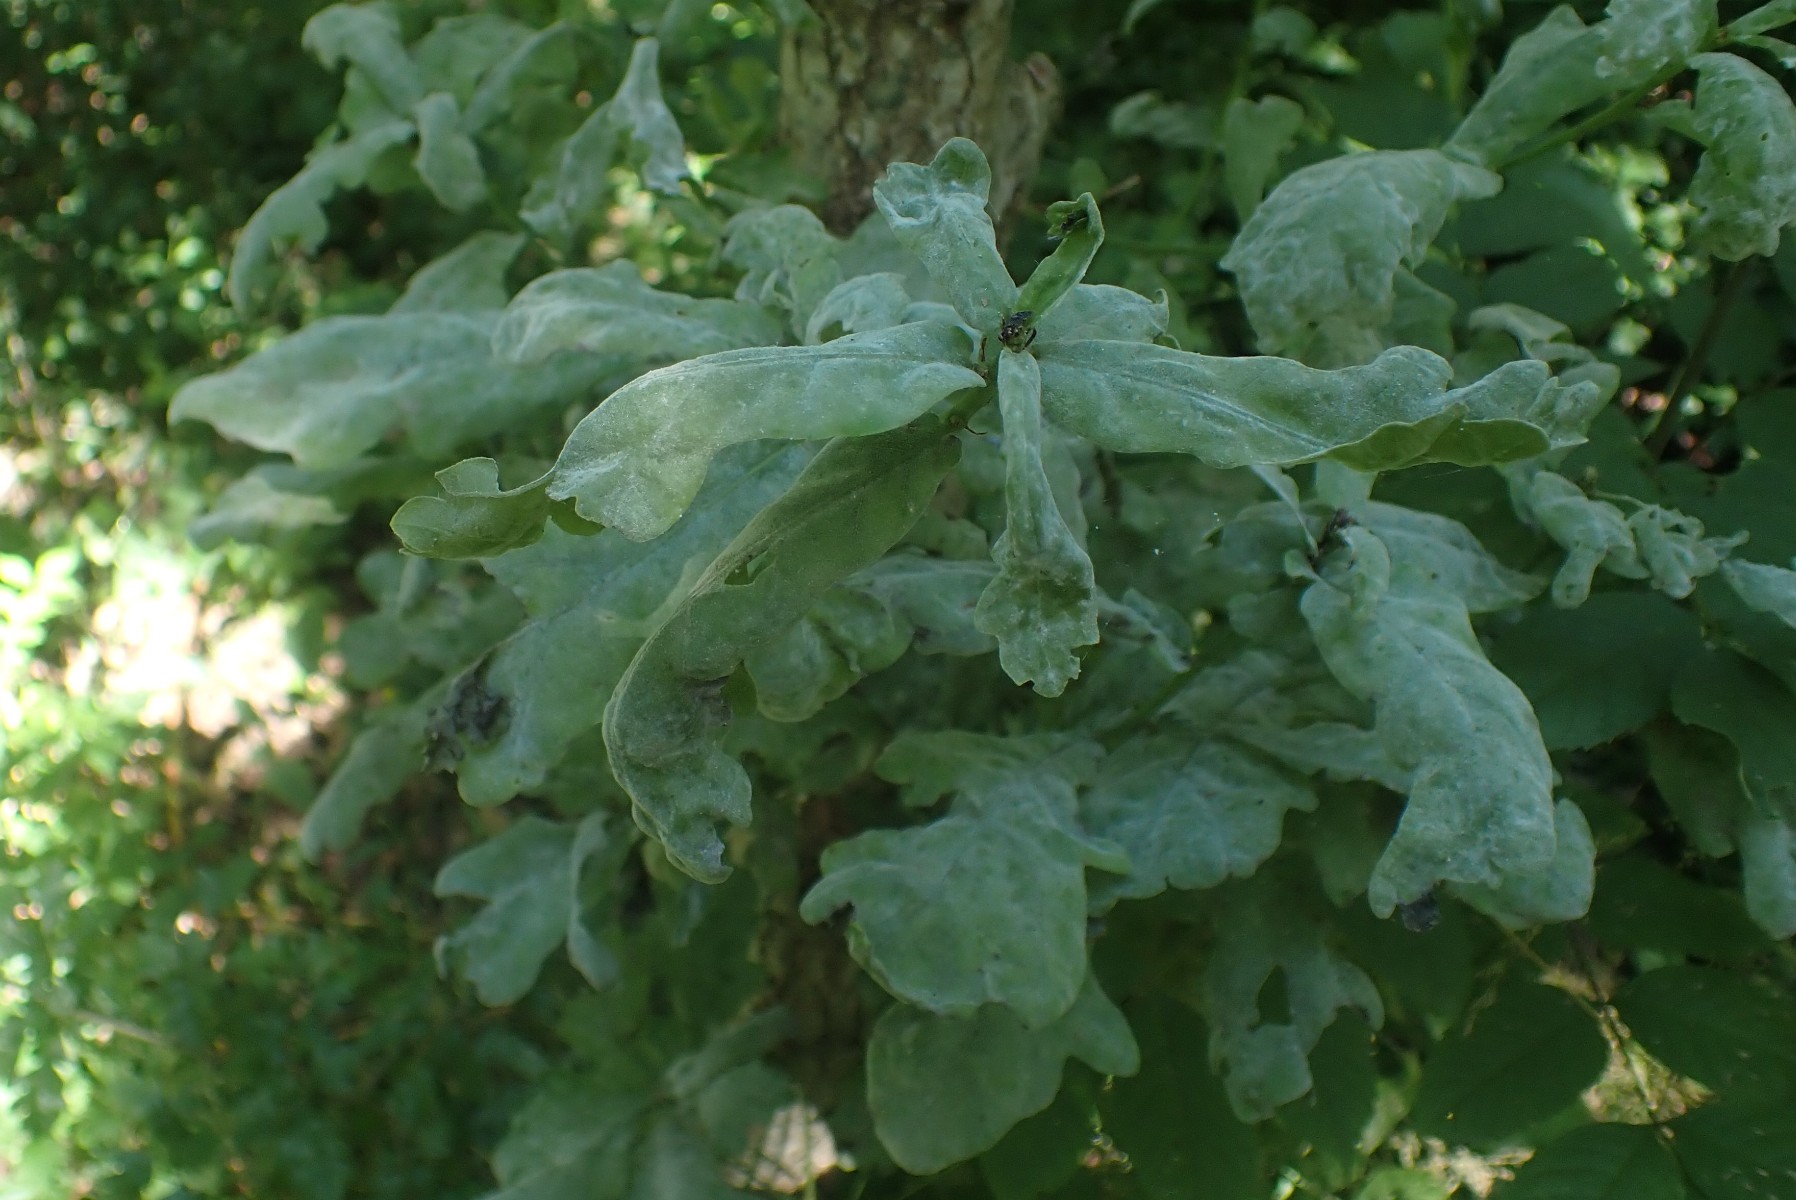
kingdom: Fungi
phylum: Ascomycota
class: Leotiomycetes
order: Helotiales
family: Erysiphaceae
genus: Erysiphe
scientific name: Erysiphe alphitoides
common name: ege-meldug
